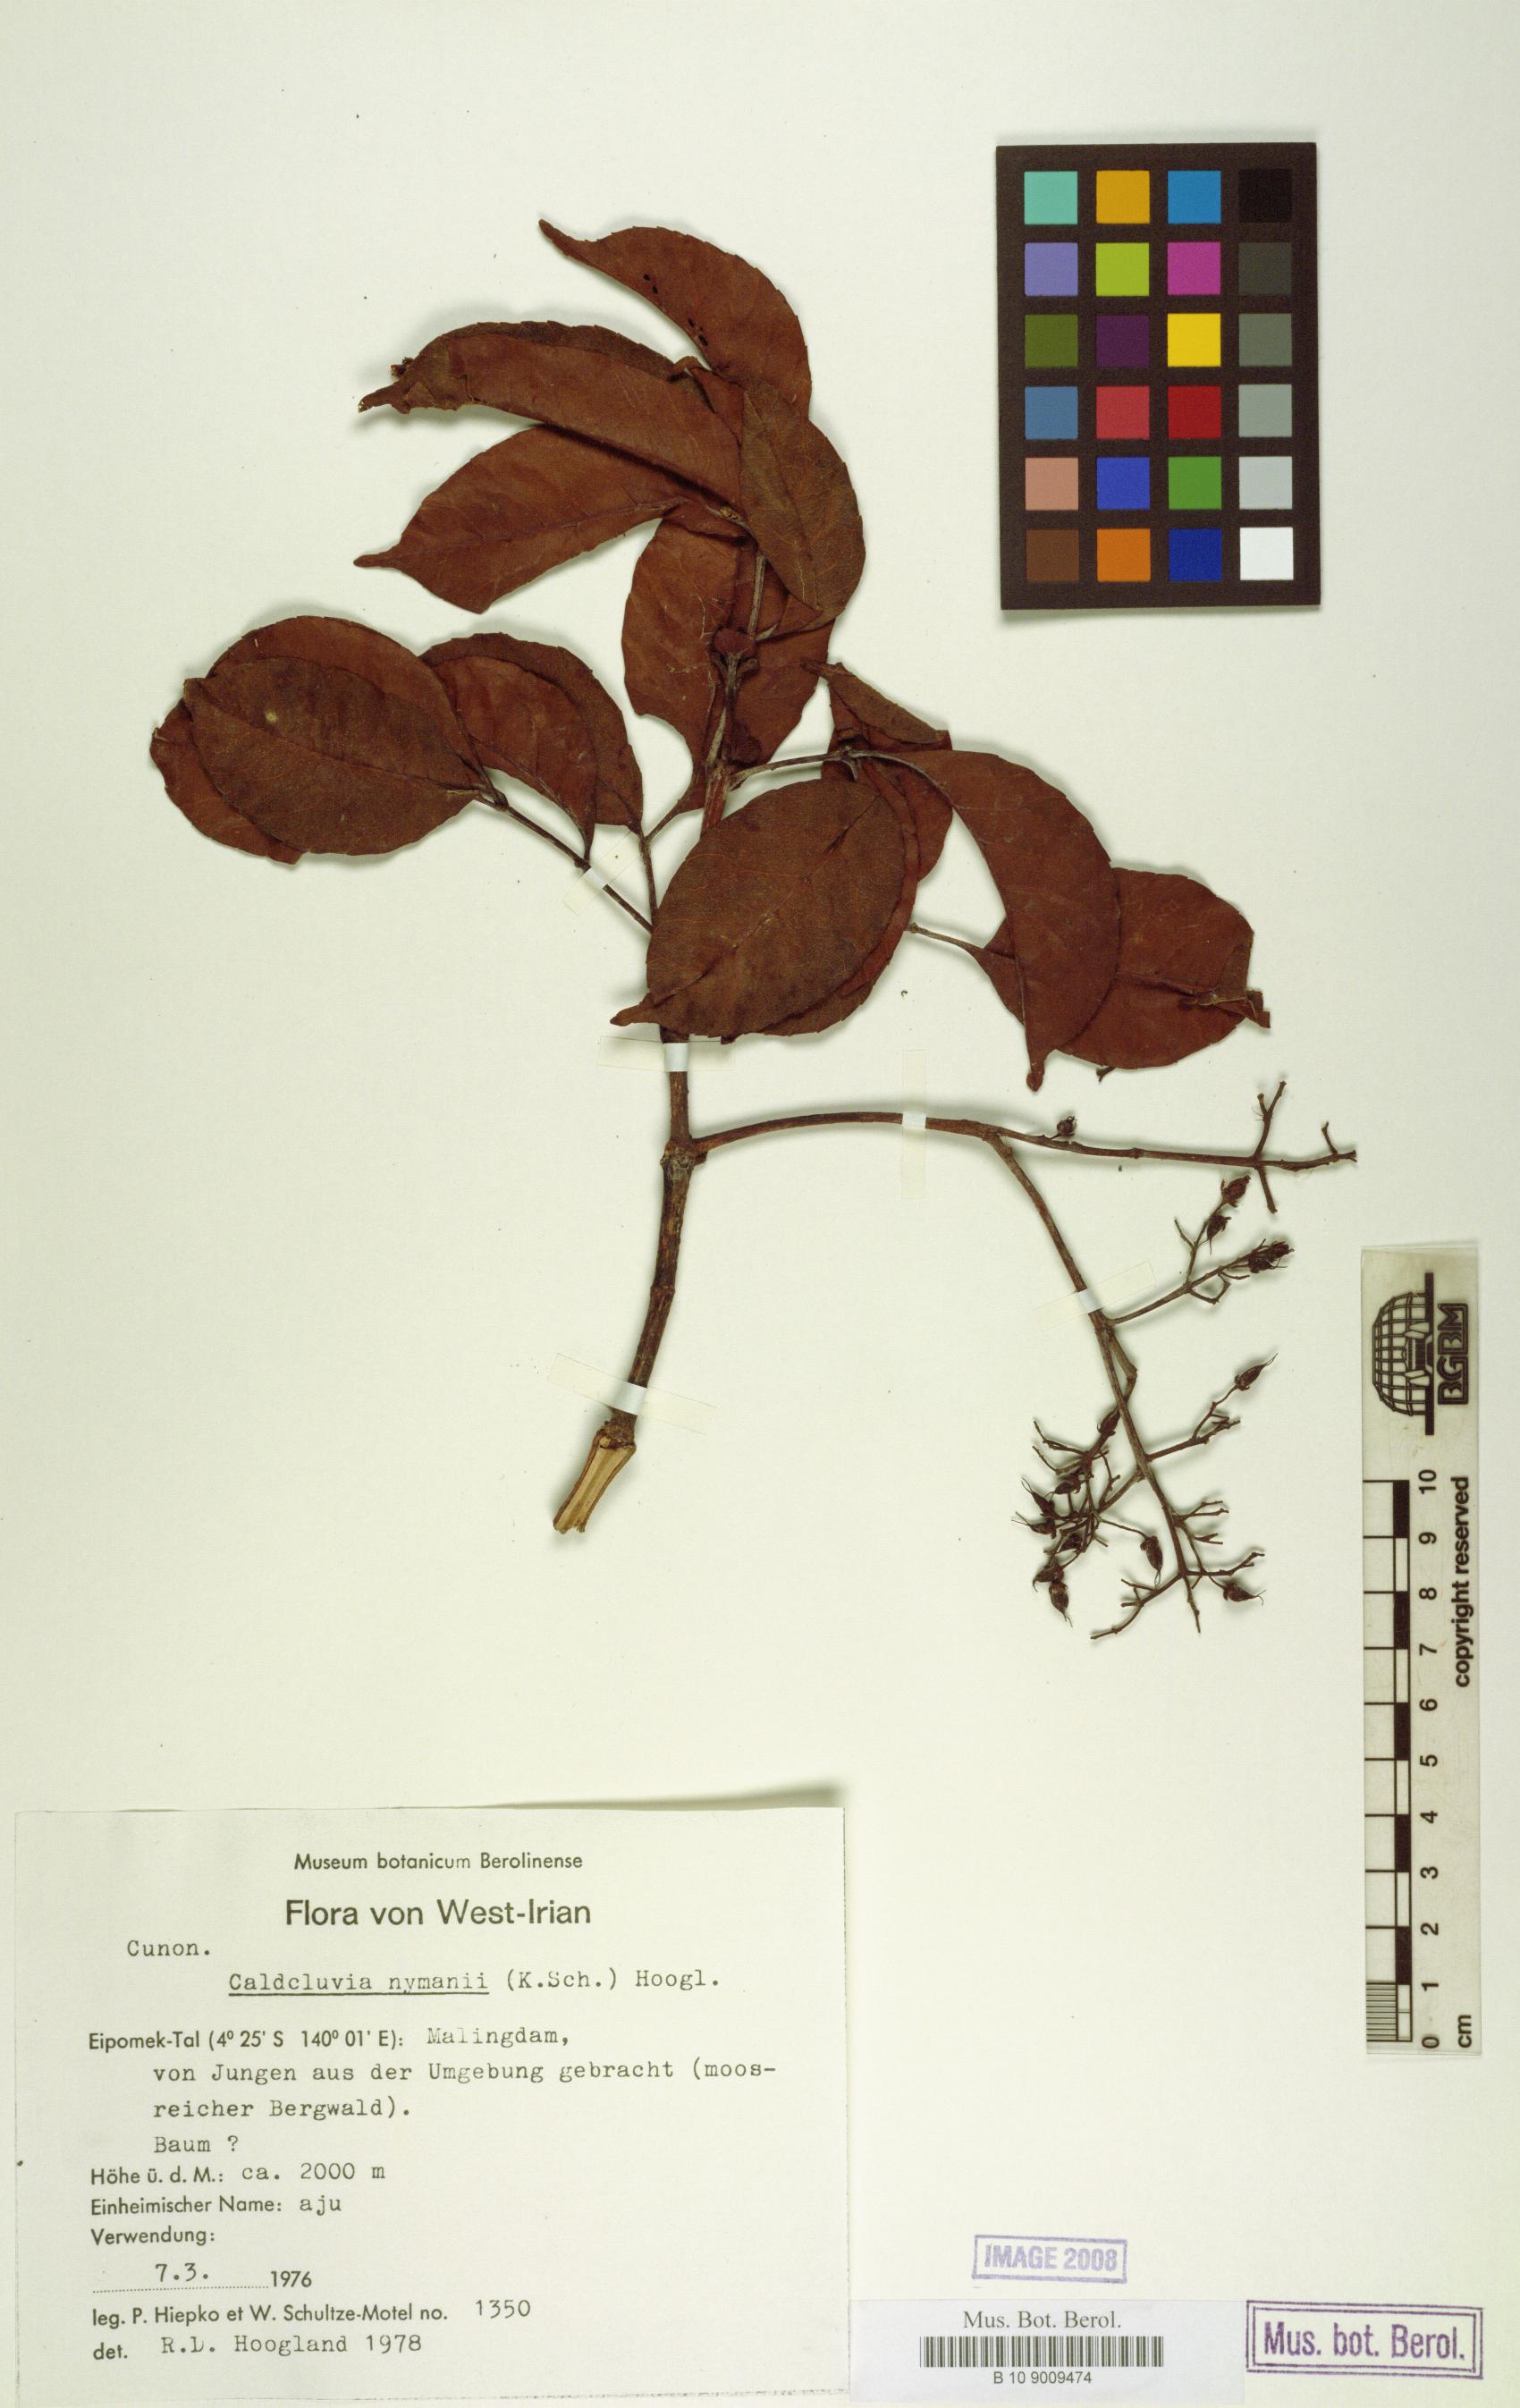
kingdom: Plantae
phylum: Tracheophyta
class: Magnoliopsida
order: Oxalidales
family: Cunoniaceae
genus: Opocunonia
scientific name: Opocunonia nymanii
